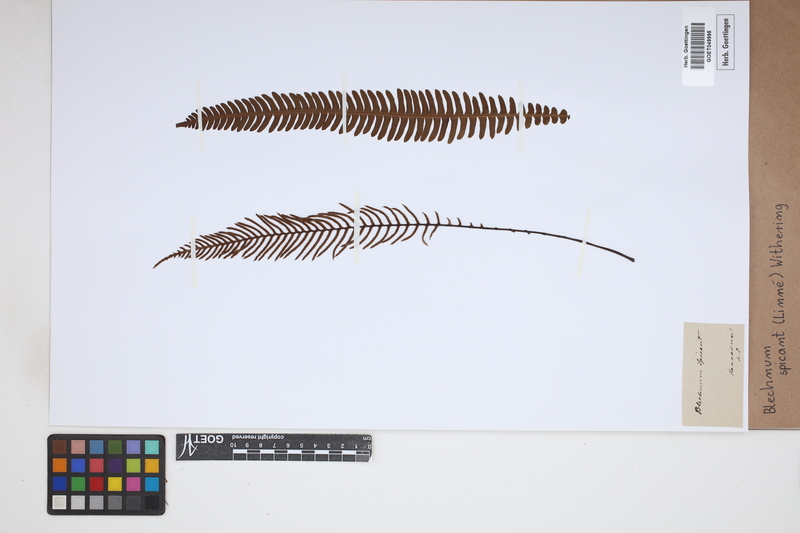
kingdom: Plantae
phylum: Tracheophyta
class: Polypodiopsida
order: Polypodiales
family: Blechnaceae
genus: Struthiopteris
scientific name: Struthiopteris spicant
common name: Deer fern
